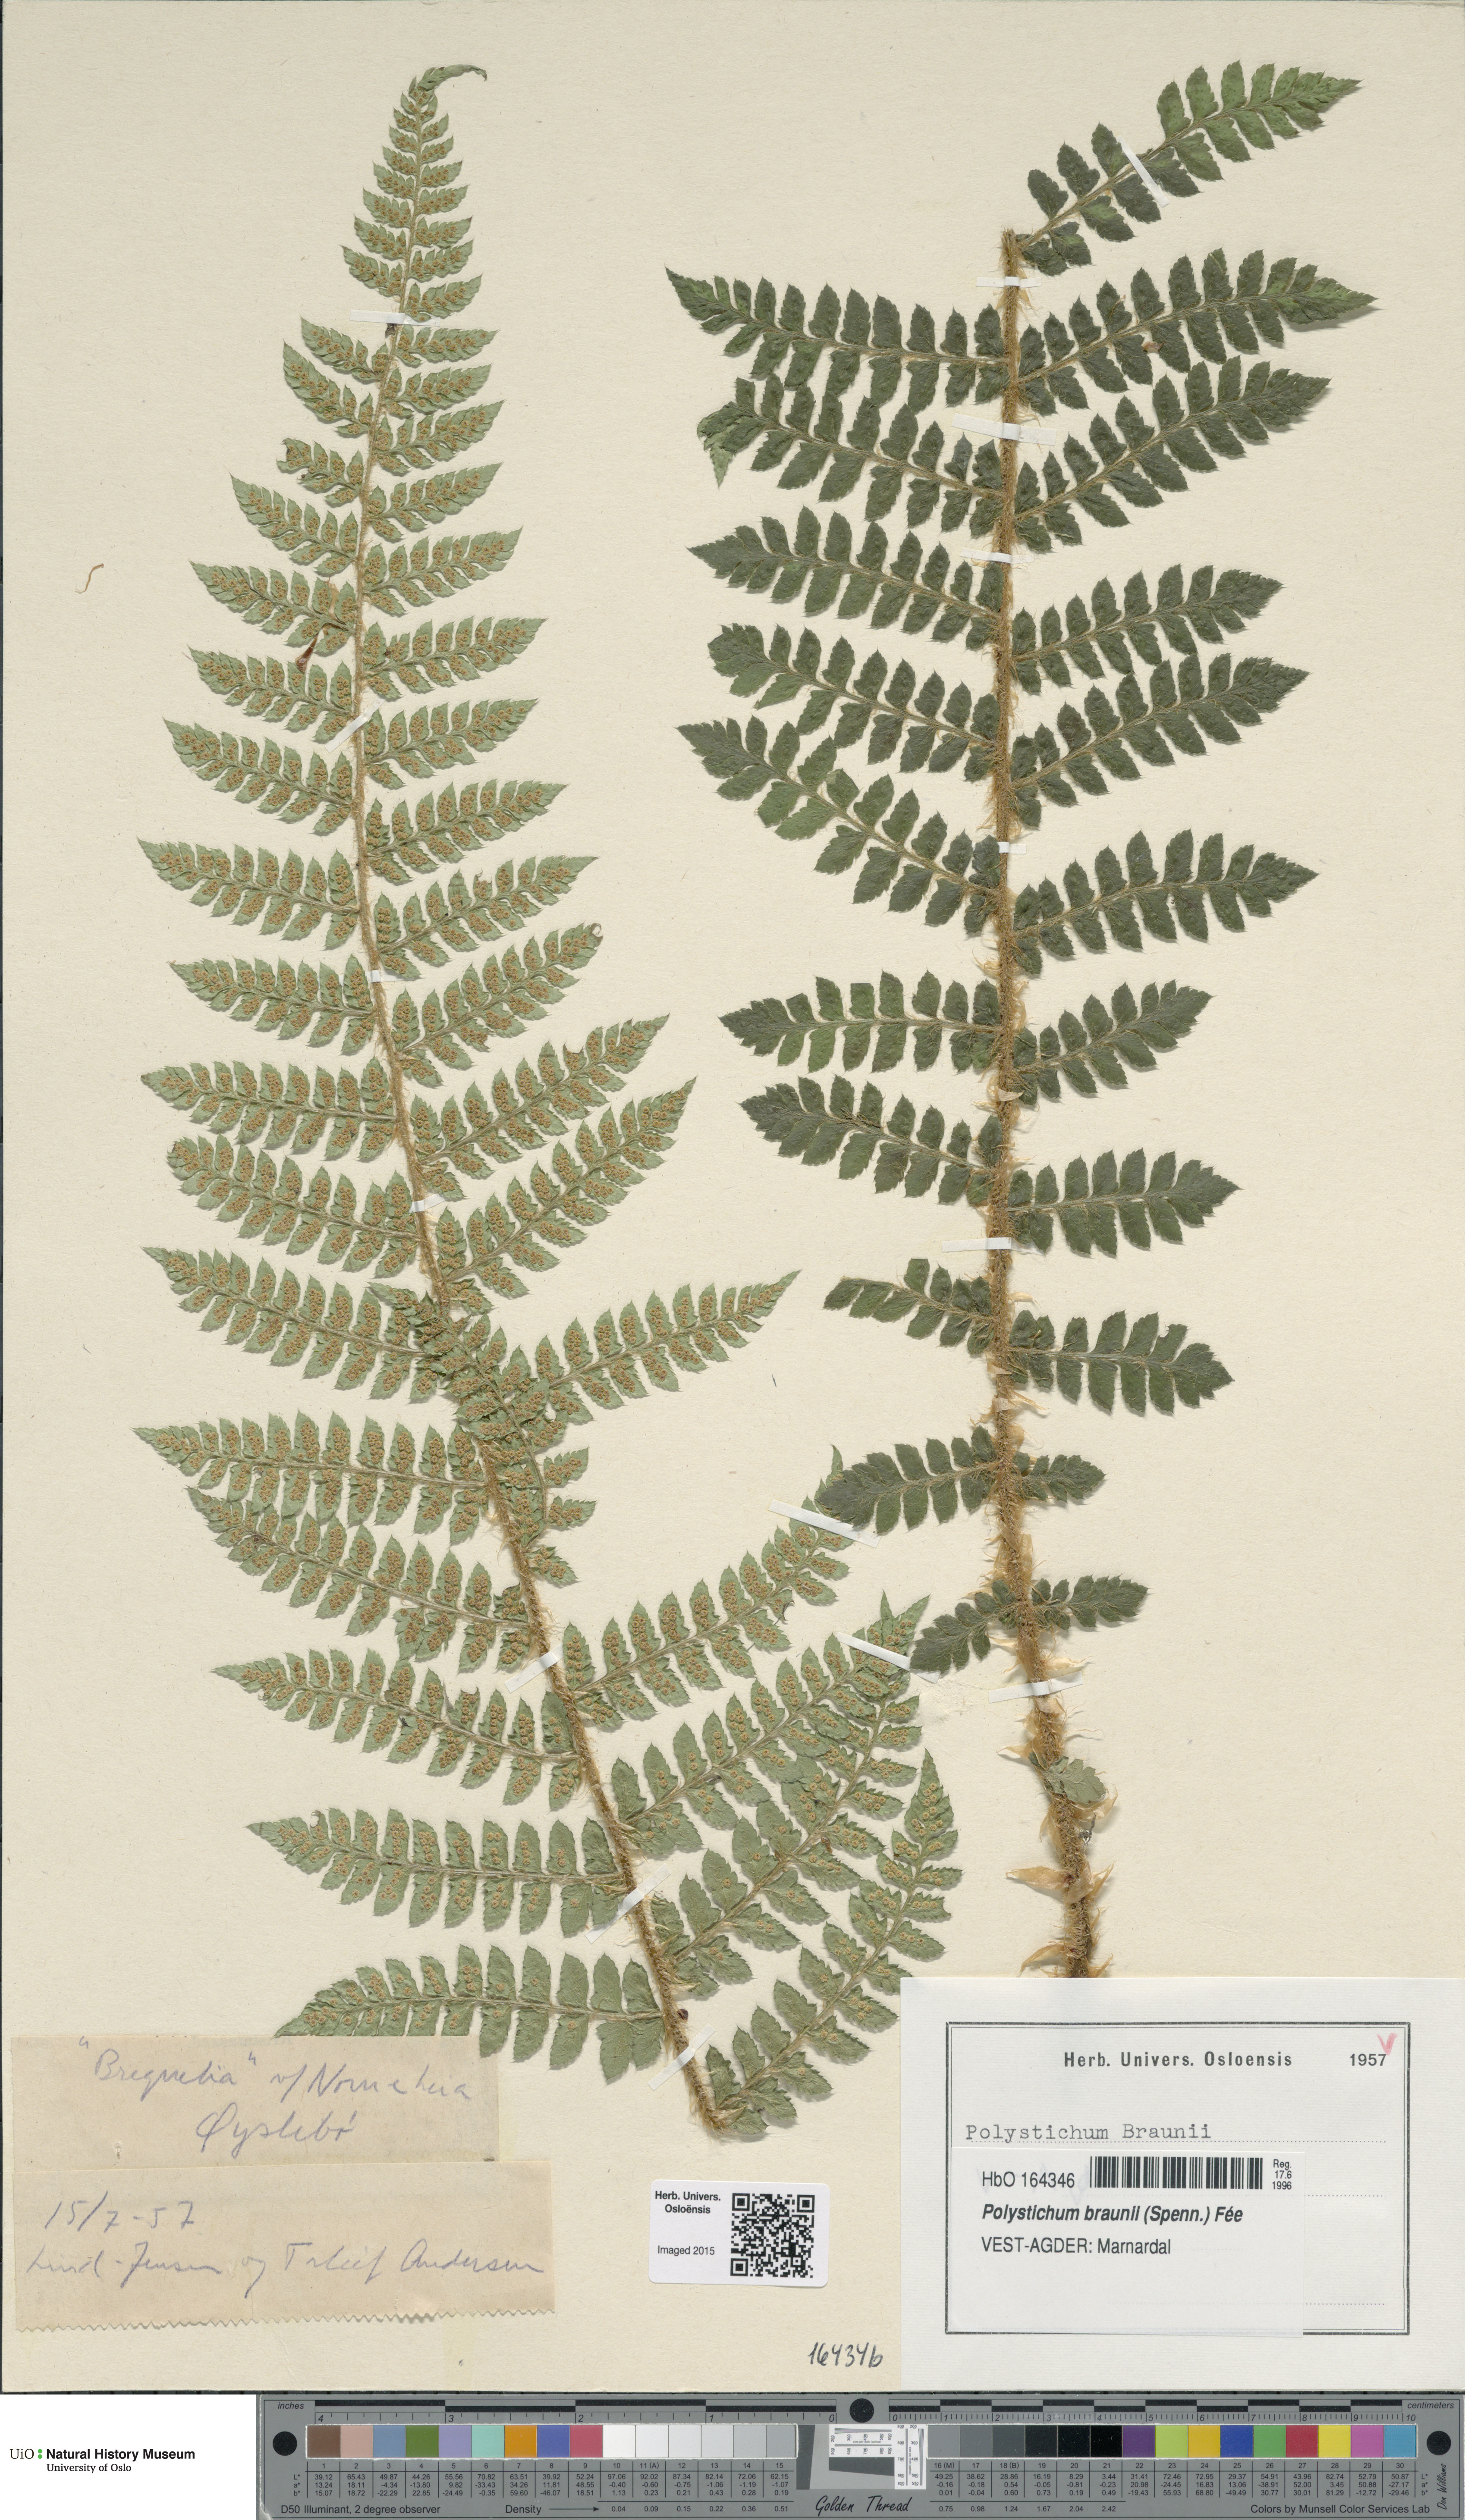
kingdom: Plantae
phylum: Tracheophyta
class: Polypodiopsida
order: Polypodiales
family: Dryopteridaceae
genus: Polystichum
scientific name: Polystichum braunii
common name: Braun's holly fern
